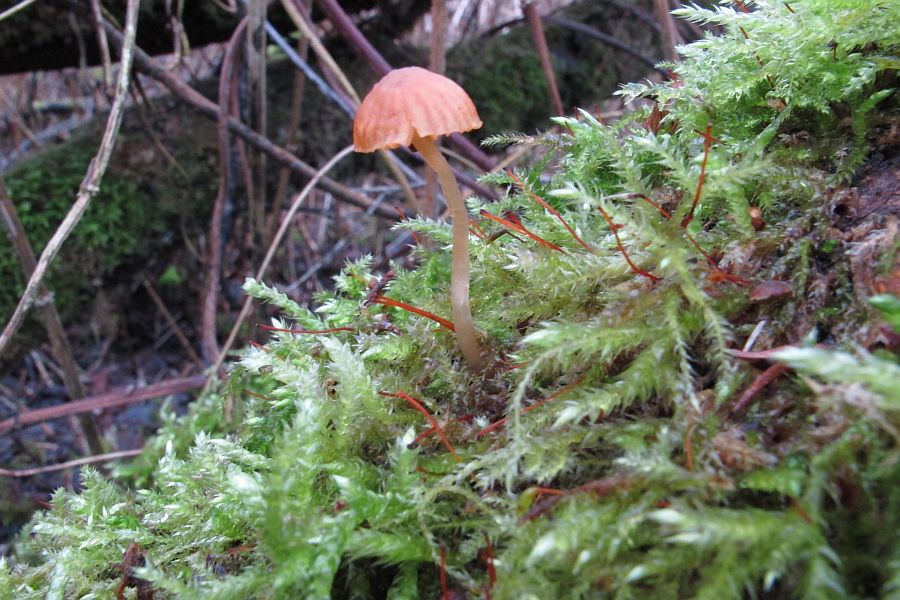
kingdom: Fungi
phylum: Basidiomycota
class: Agaricomycetes
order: Agaricales
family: Hymenogastraceae
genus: Galerina
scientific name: Galerina
